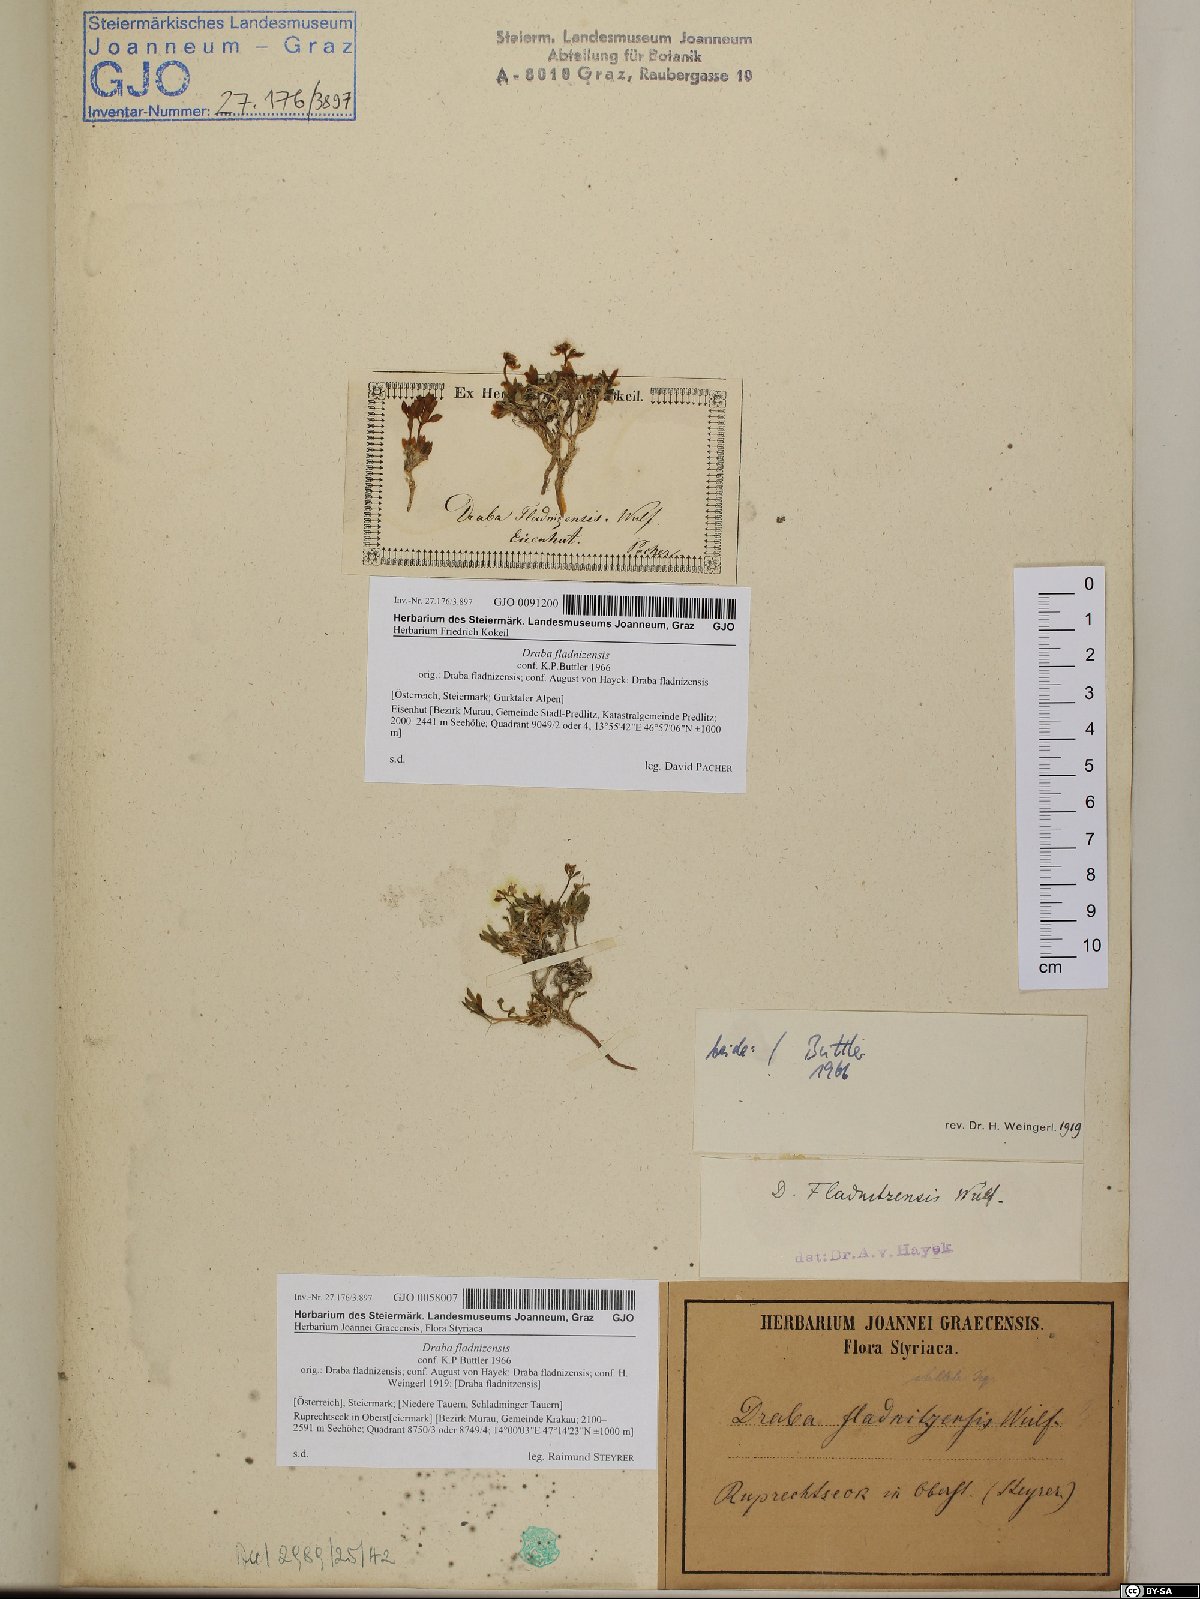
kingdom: Plantae
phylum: Tracheophyta
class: Magnoliopsida
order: Brassicales
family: Brassicaceae
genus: Draba
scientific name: Draba fladnizensis
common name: Austrian draba
